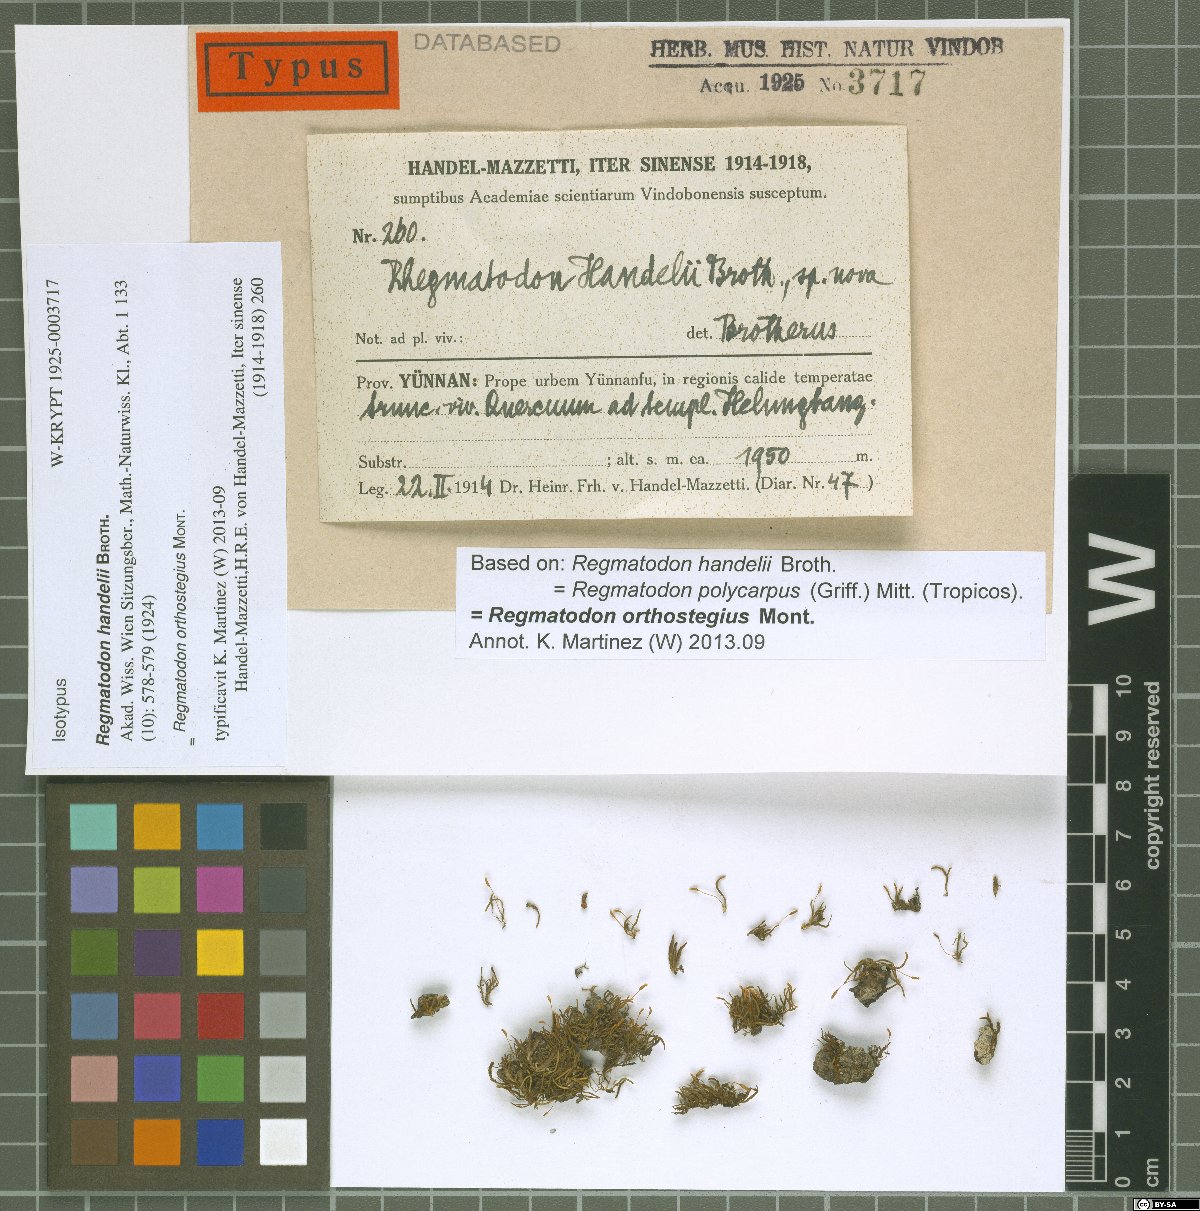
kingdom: Plantae
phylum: Bryophyta
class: Bryopsida
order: Hypnales
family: Regmatodontaceae
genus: Regmatodon
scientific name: Regmatodon orthostegius
